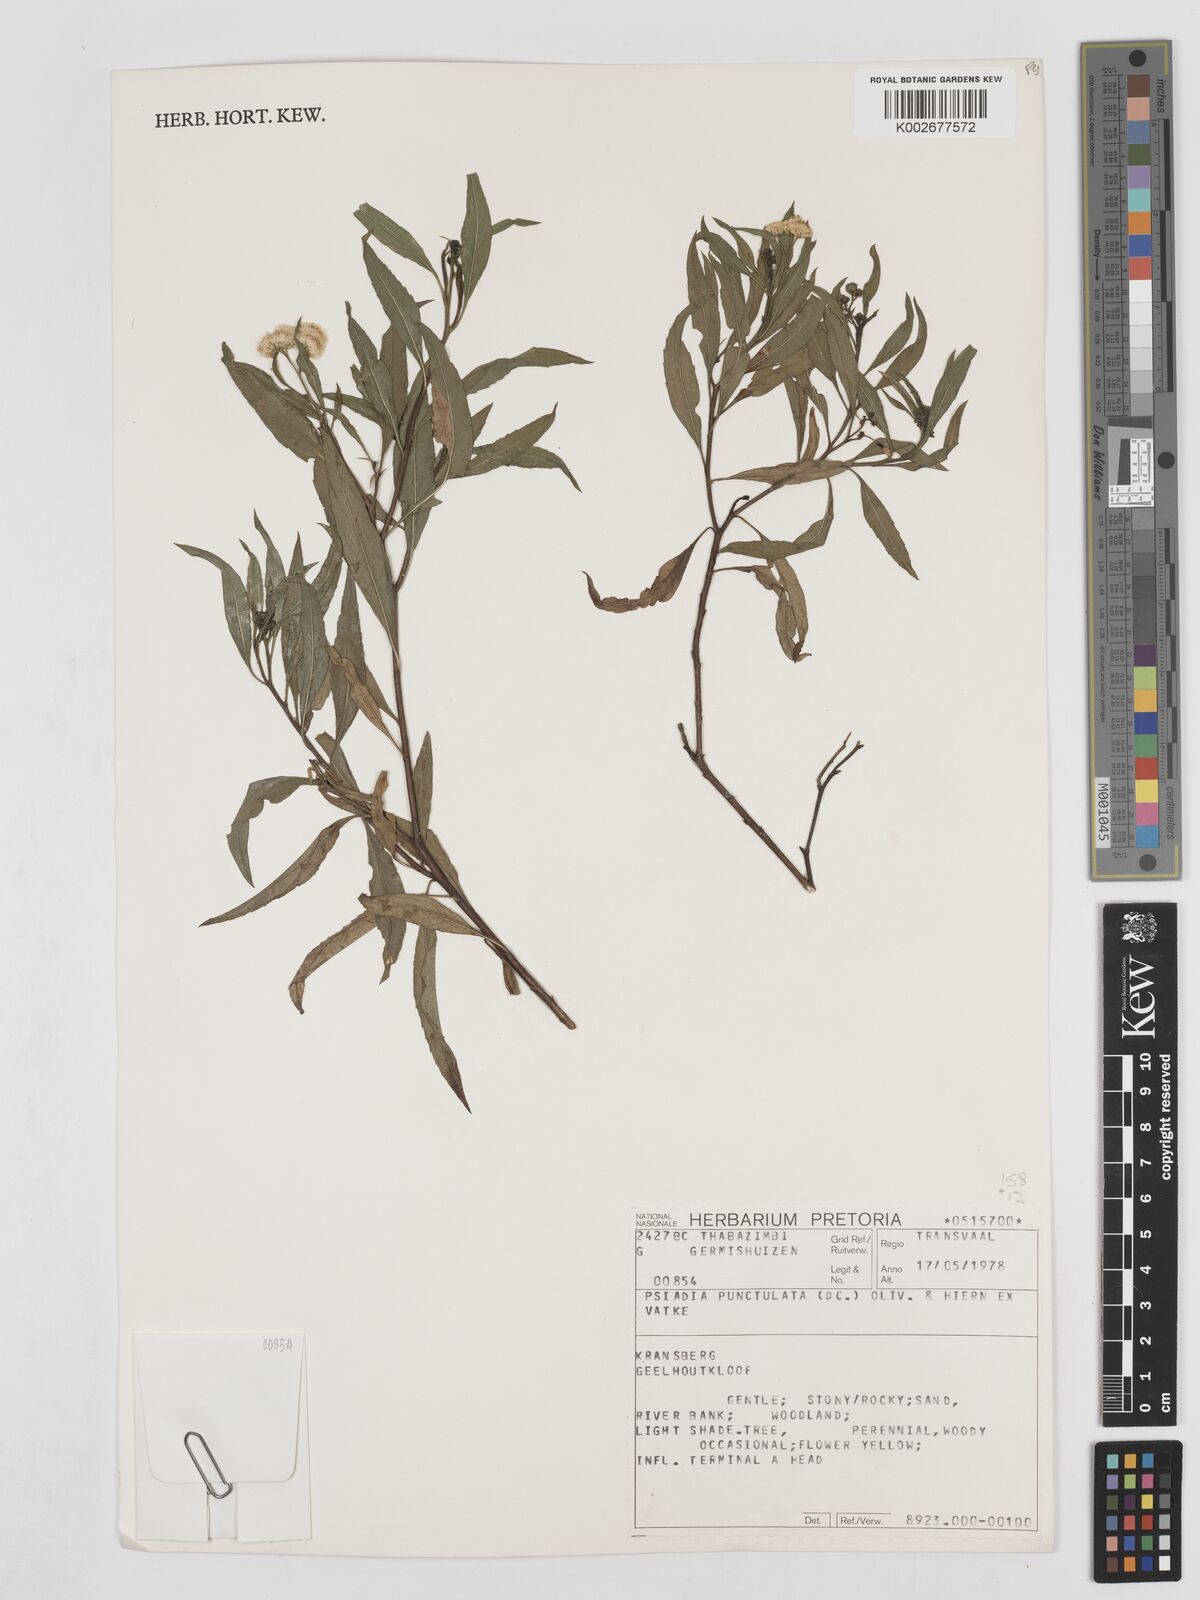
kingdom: Plantae
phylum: Tracheophyta
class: Magnoliopsida
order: Asterales
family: Asteraceae
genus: Psiadia
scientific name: Psiadia punctulata
